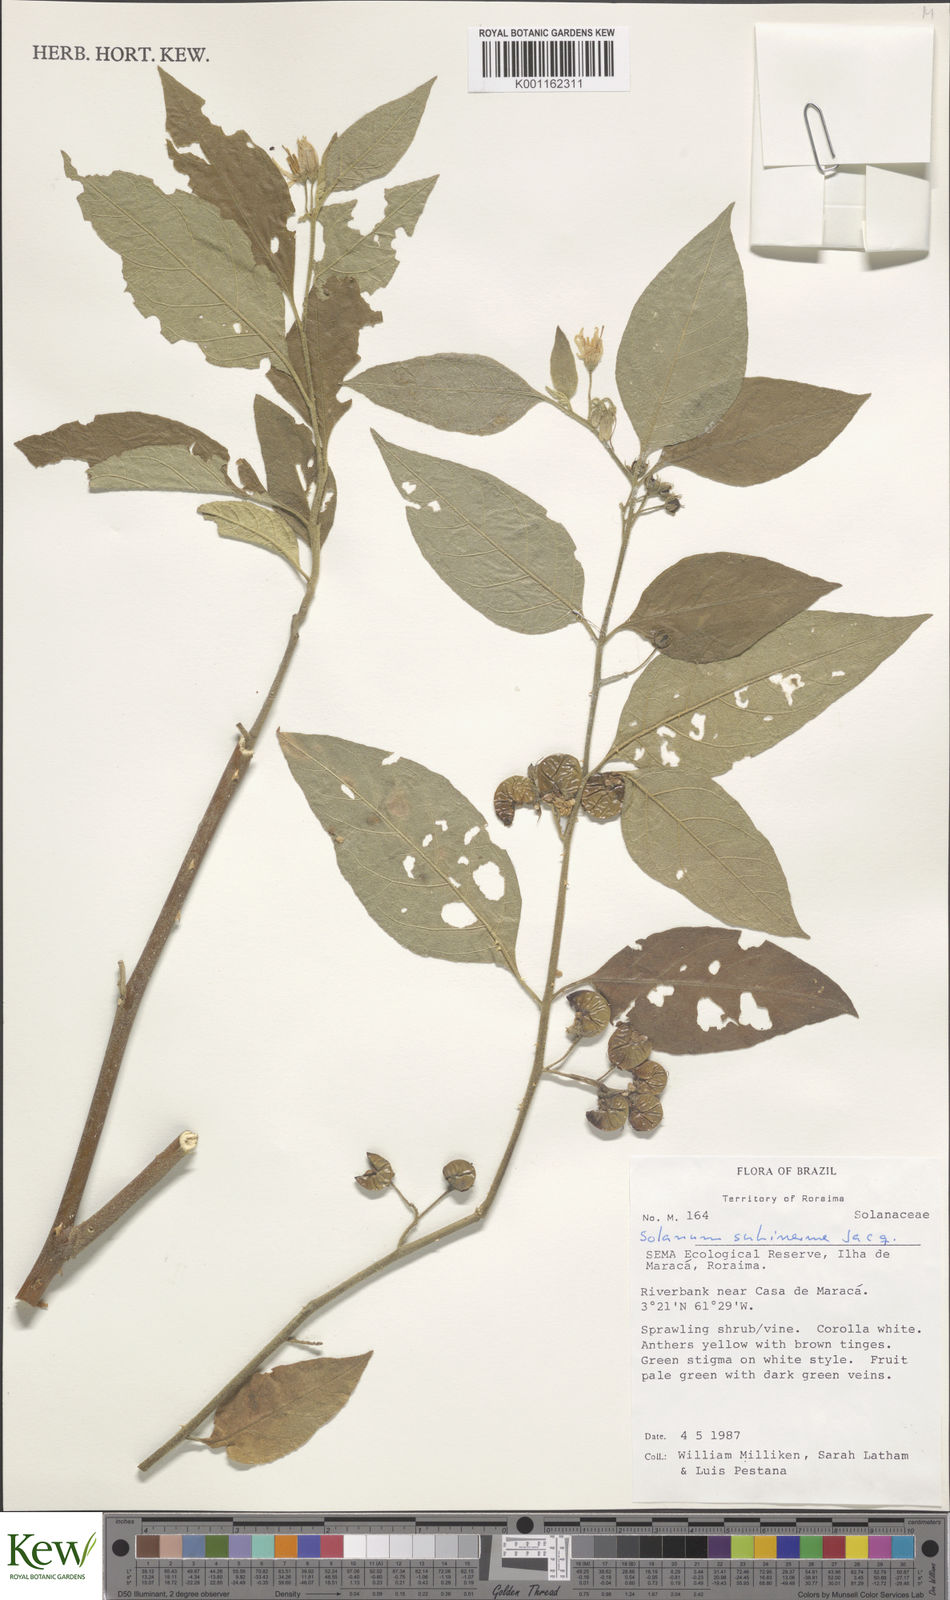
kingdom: Plantae
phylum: Tracheophyta
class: Magnoliopsida
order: Solanales
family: Solanaceae
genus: Solanum
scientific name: Solanum subinerme
